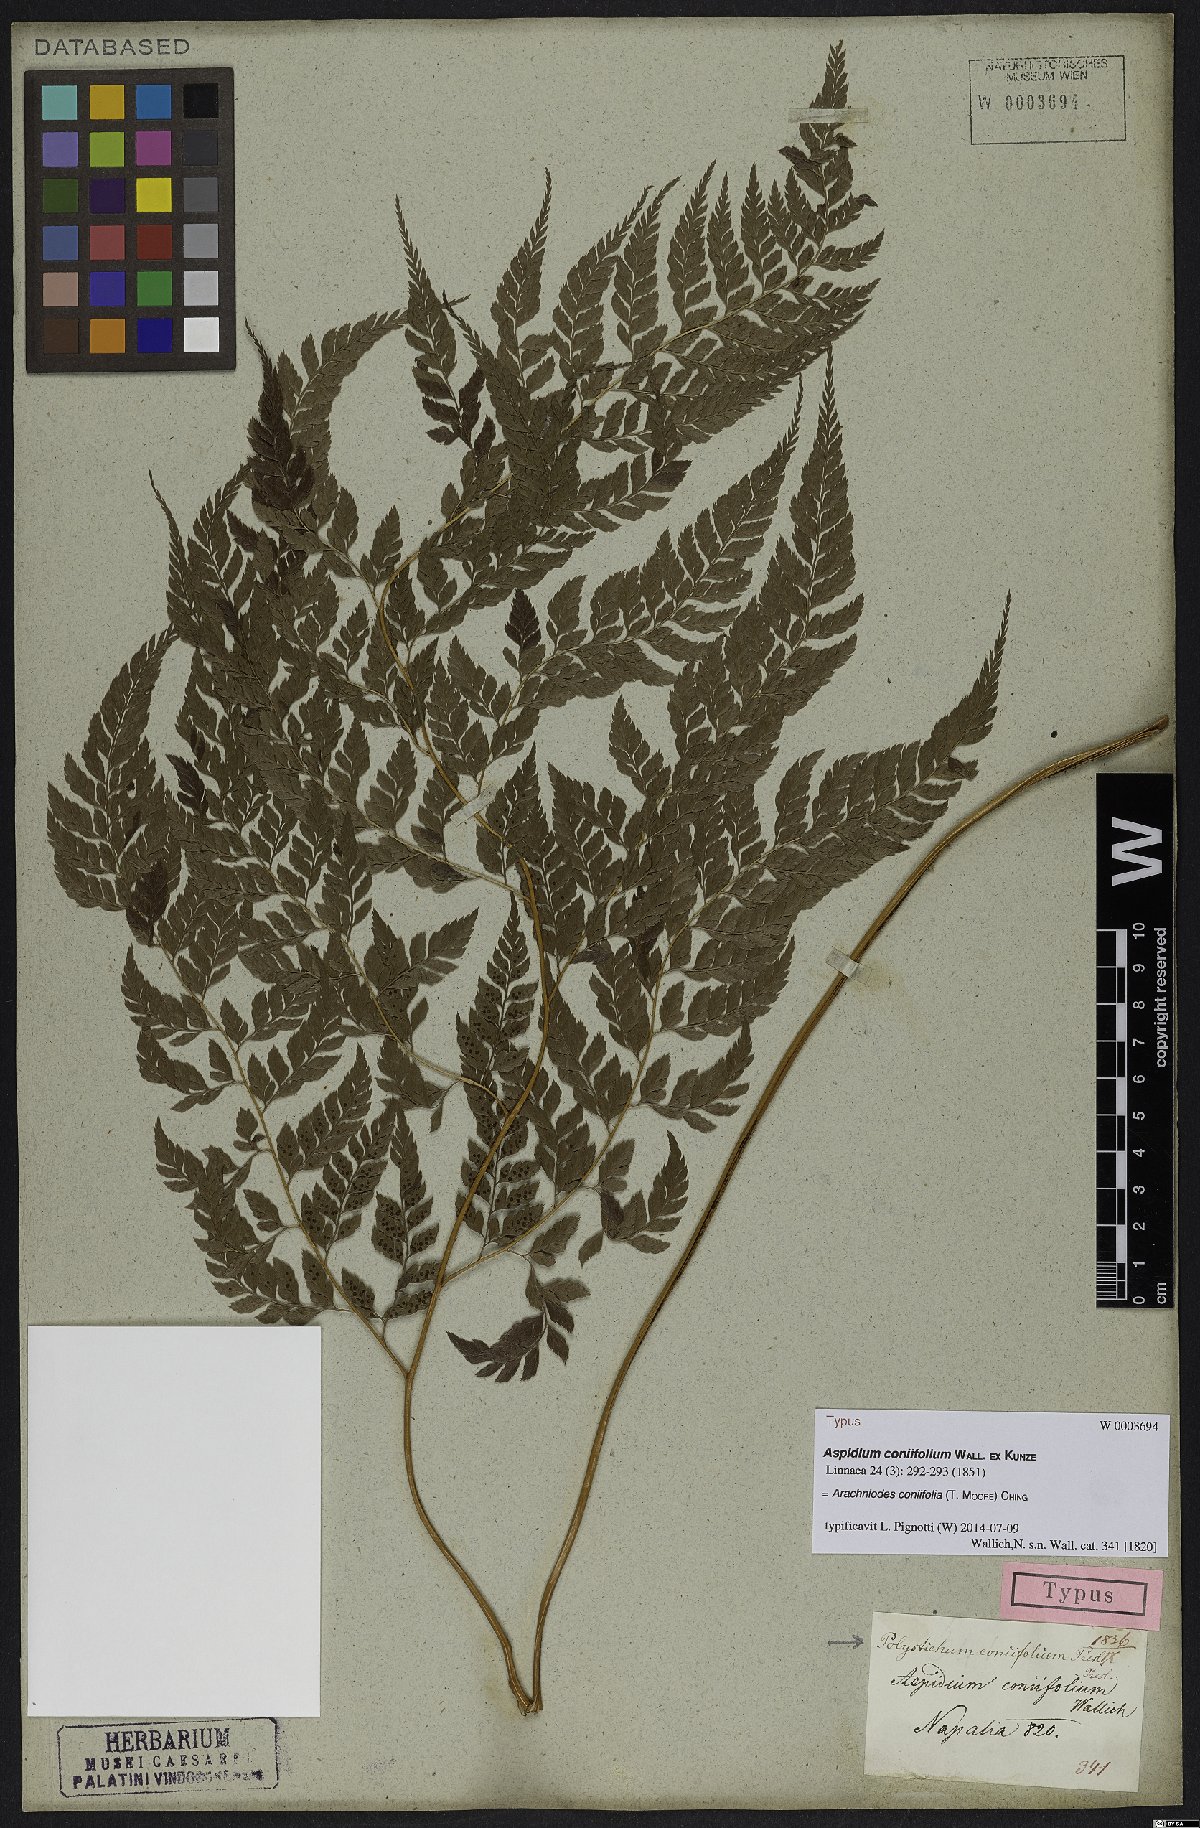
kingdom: Plantae
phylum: Tracheophyta
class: Polypodiopsida
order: Polypodiales
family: Dryopteridaceae
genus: Arachniodes
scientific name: Arachniodes coniifolia
